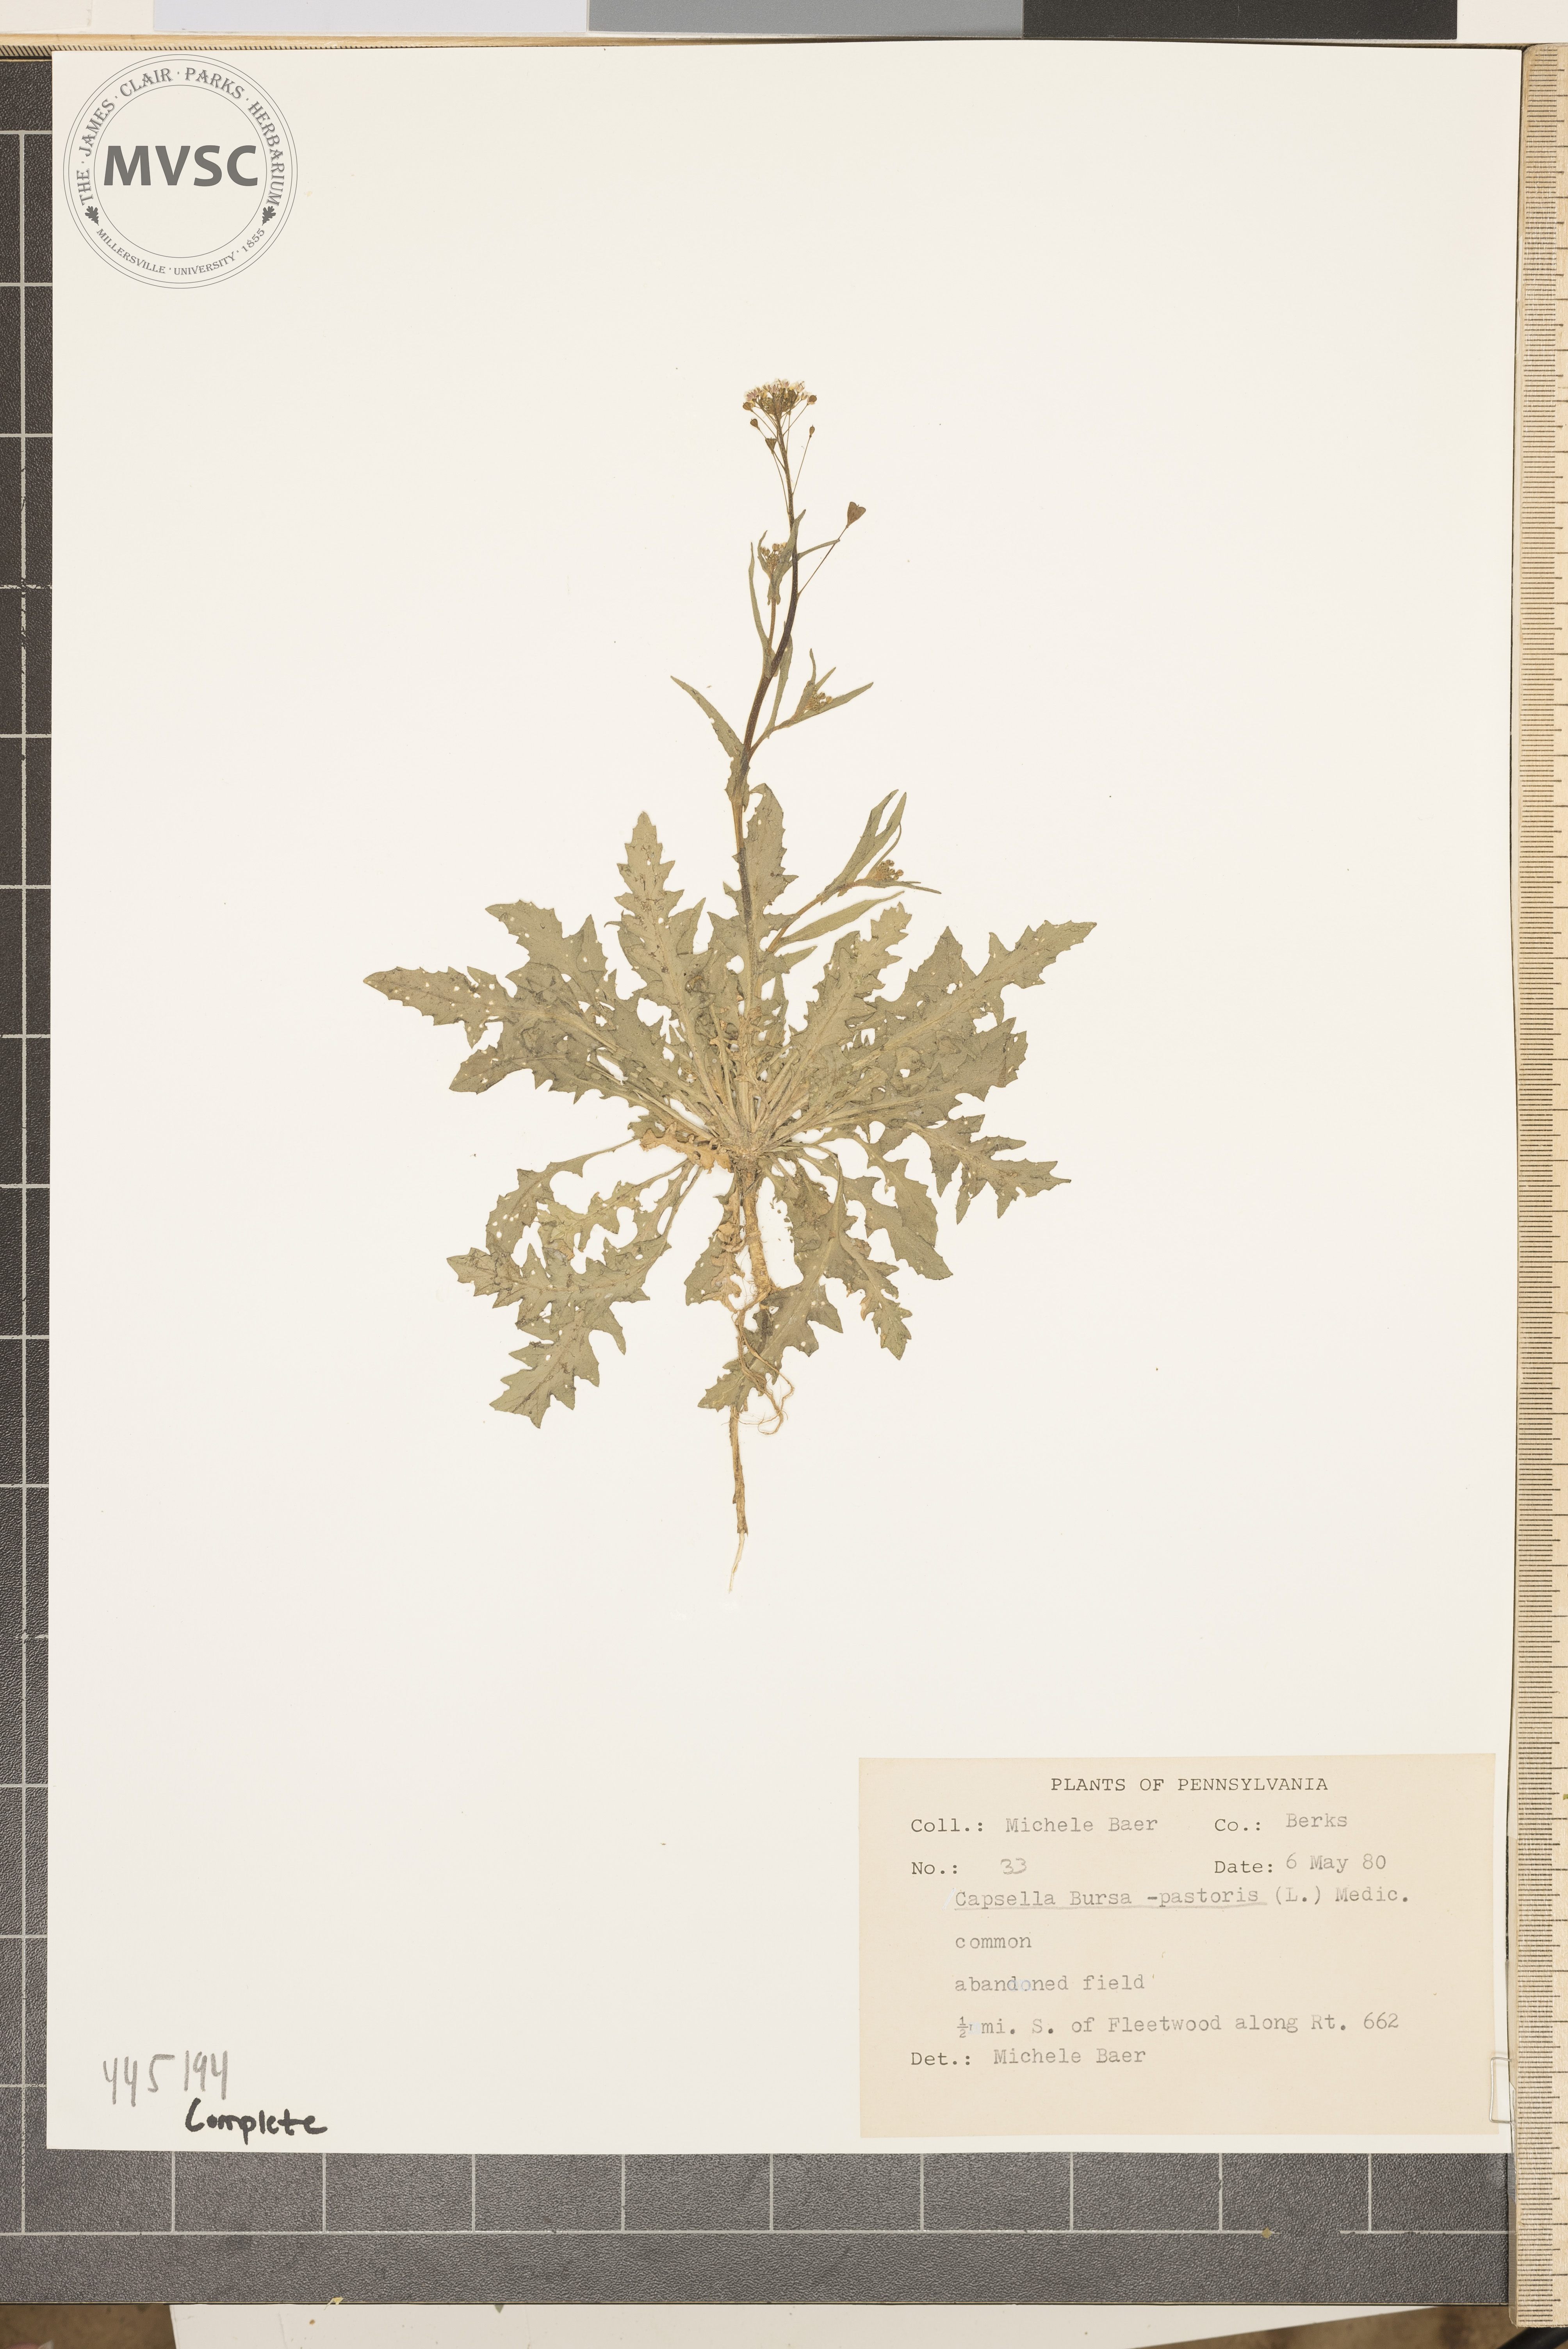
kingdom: Plantae
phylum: Tracheophyta
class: Magnoliopsida
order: Brassicales
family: Brassicaceae
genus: Capsella
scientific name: Capsella bursa-pastoris
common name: Shepherd's purse
